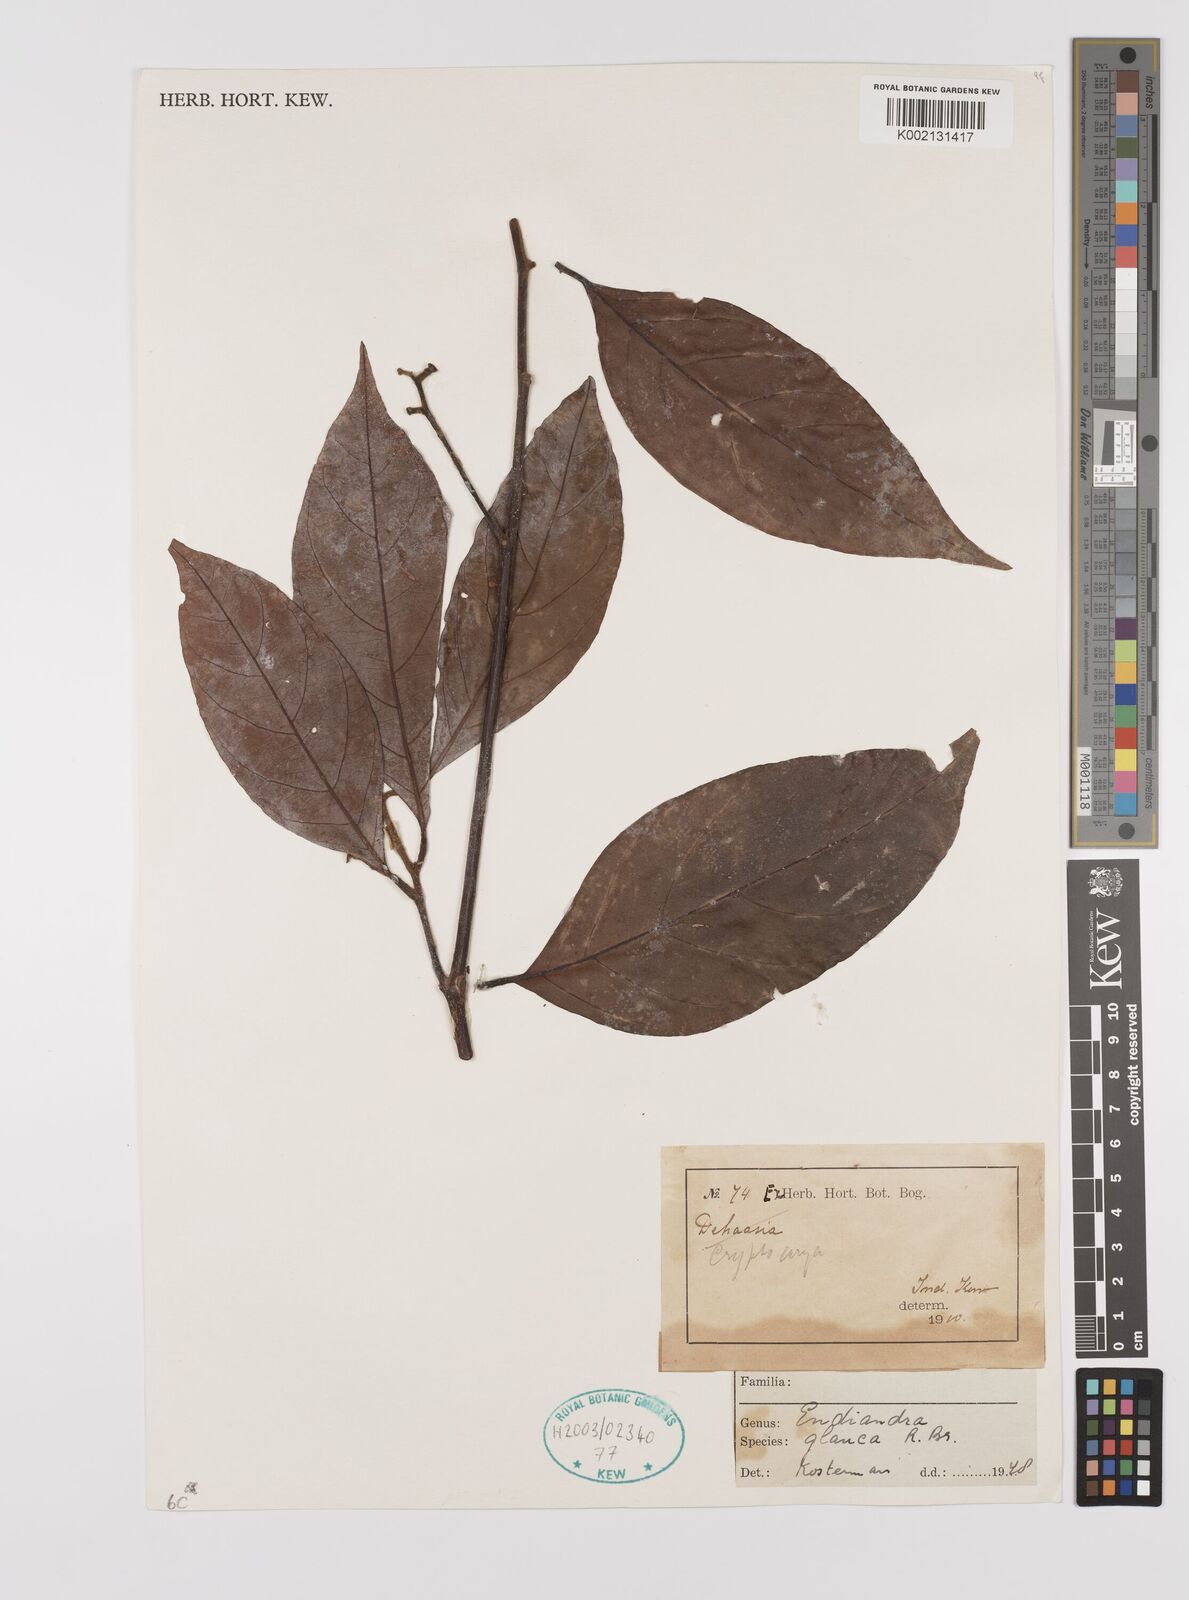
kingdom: Plantae
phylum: Tracheophyta
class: Magnoliopsida
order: Laurales
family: Lauraceae
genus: Endiandra
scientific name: Endiandra glauca
